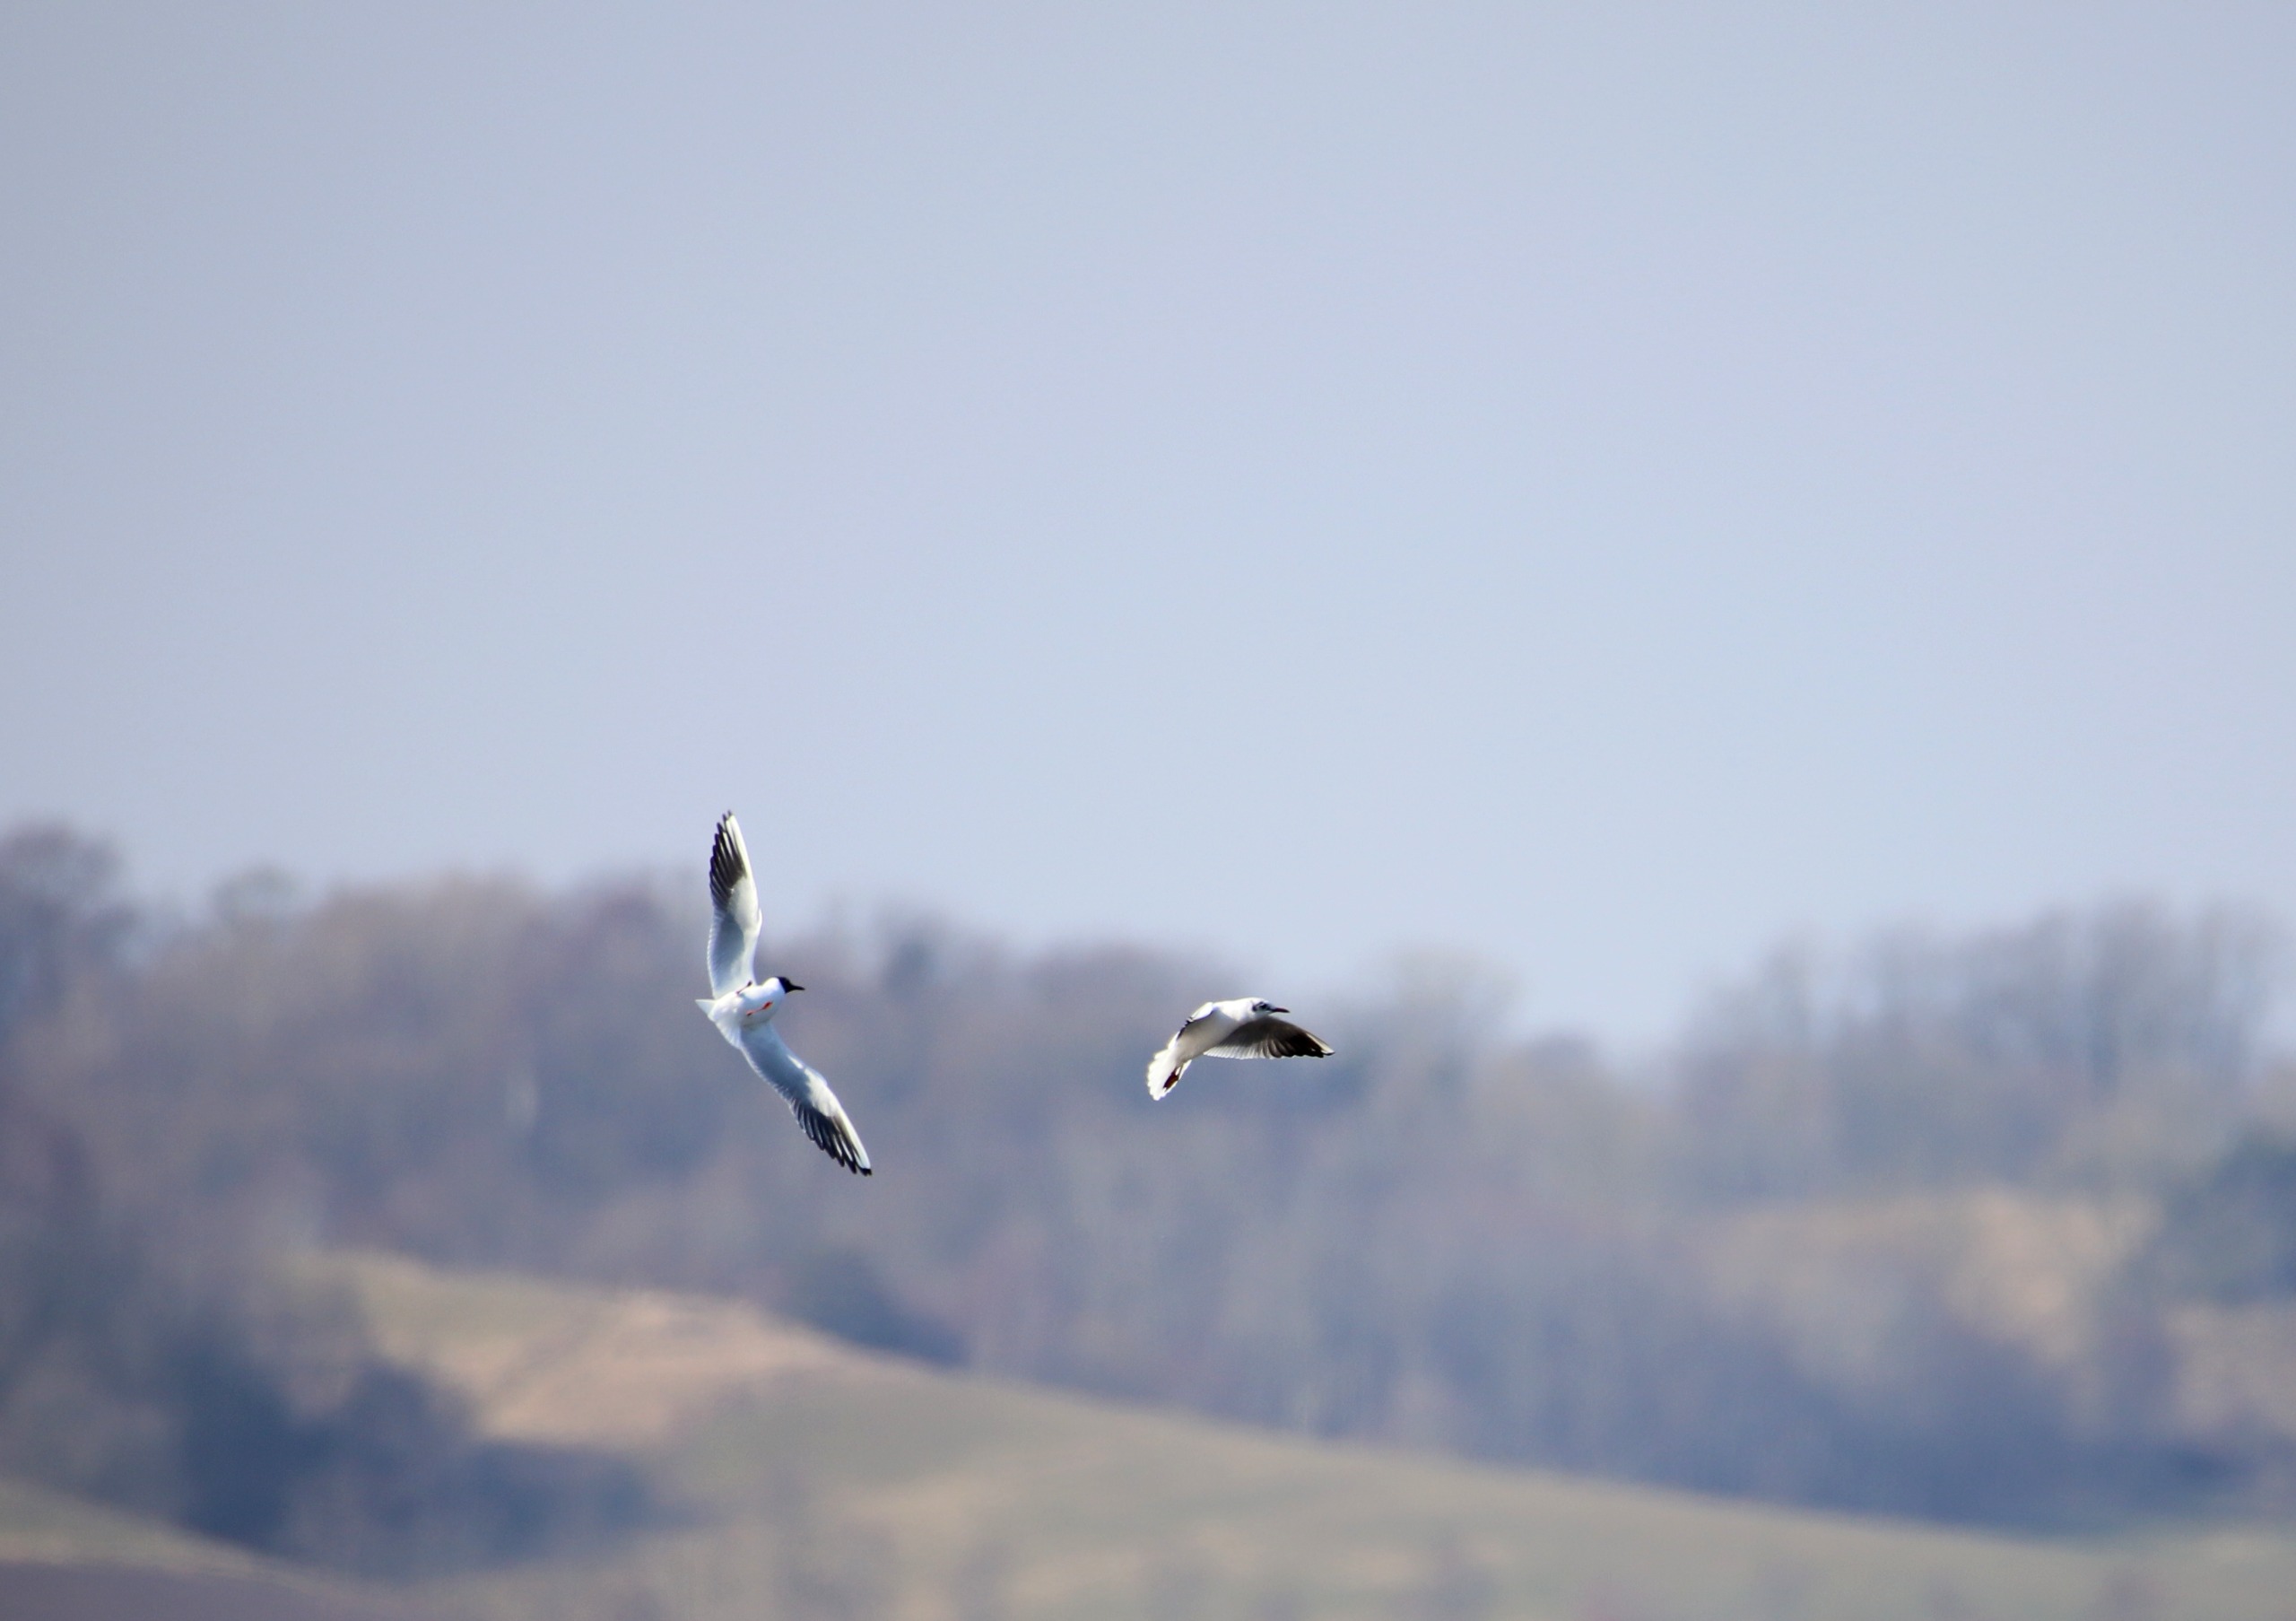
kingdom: Animalia
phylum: Chordata
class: Aves
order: Charadriiformes
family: Laridae
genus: Chroicocephalus
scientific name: Chroicocephalus ridibundus
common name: Hættemåge
